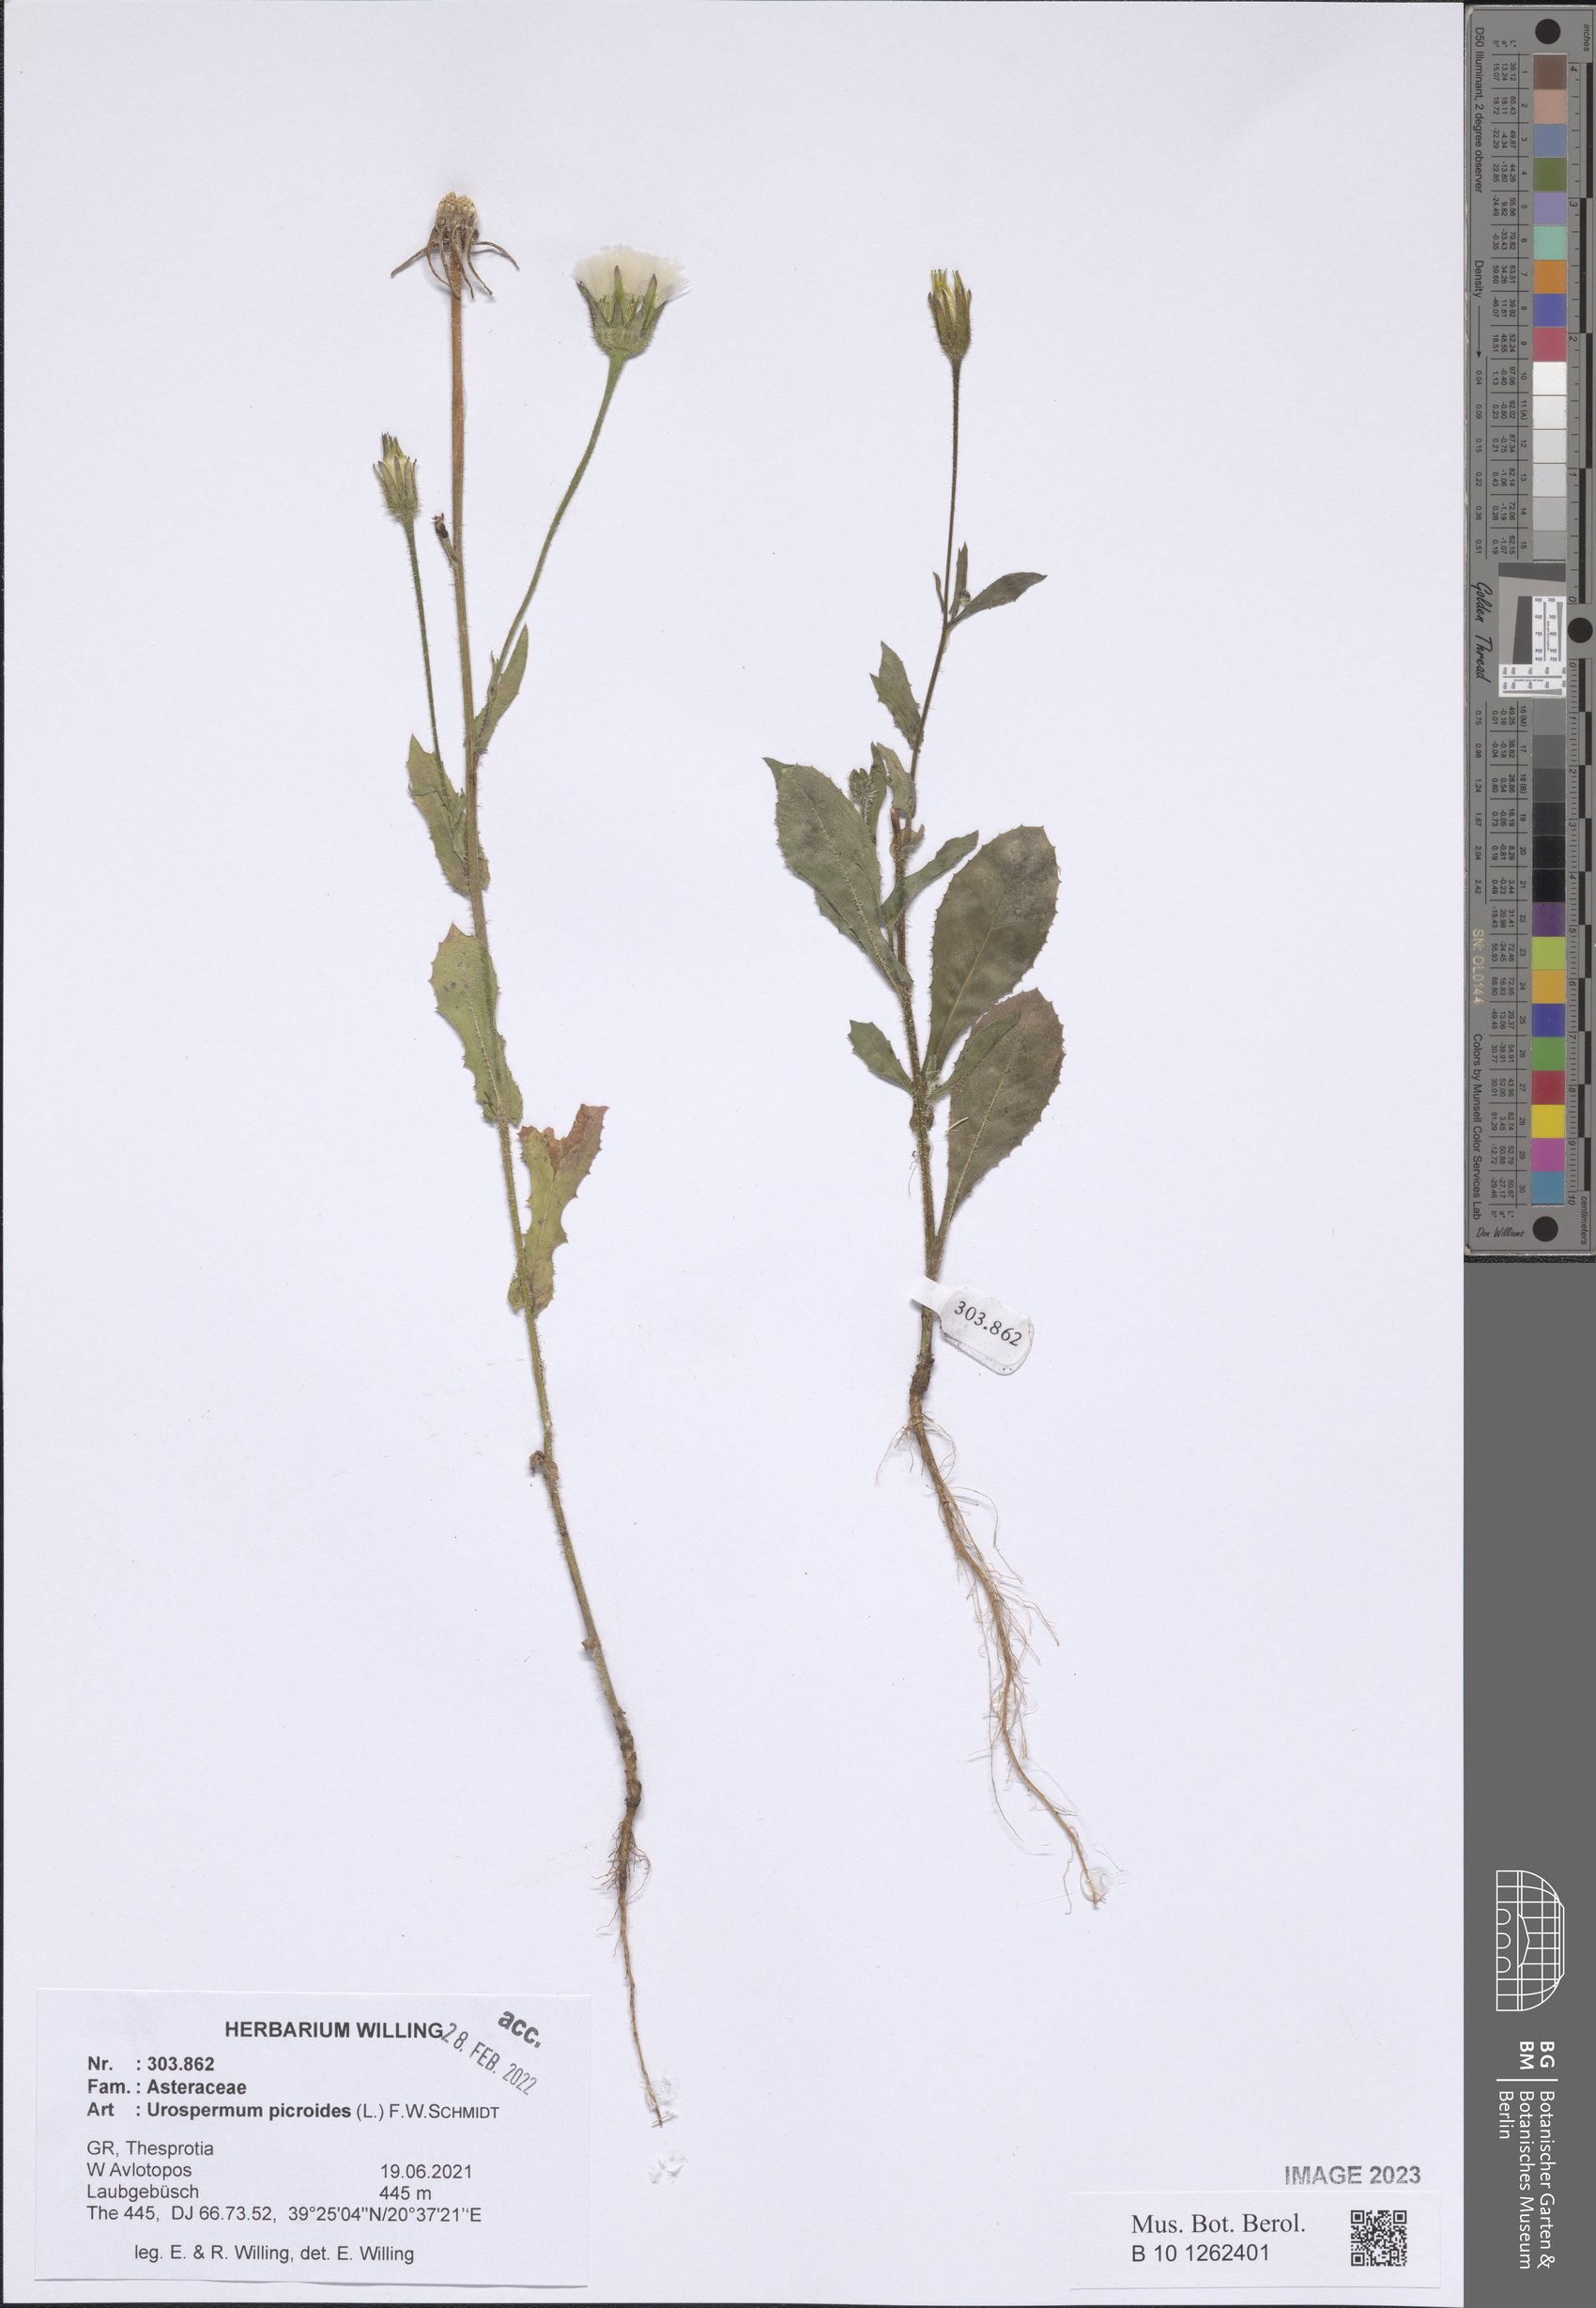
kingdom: Plantae
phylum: Tracheophyta
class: Magnoliopsida
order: Asterales
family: Asteraceae
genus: Urospermum
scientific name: Urospermum picroides
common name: False hawkbit
